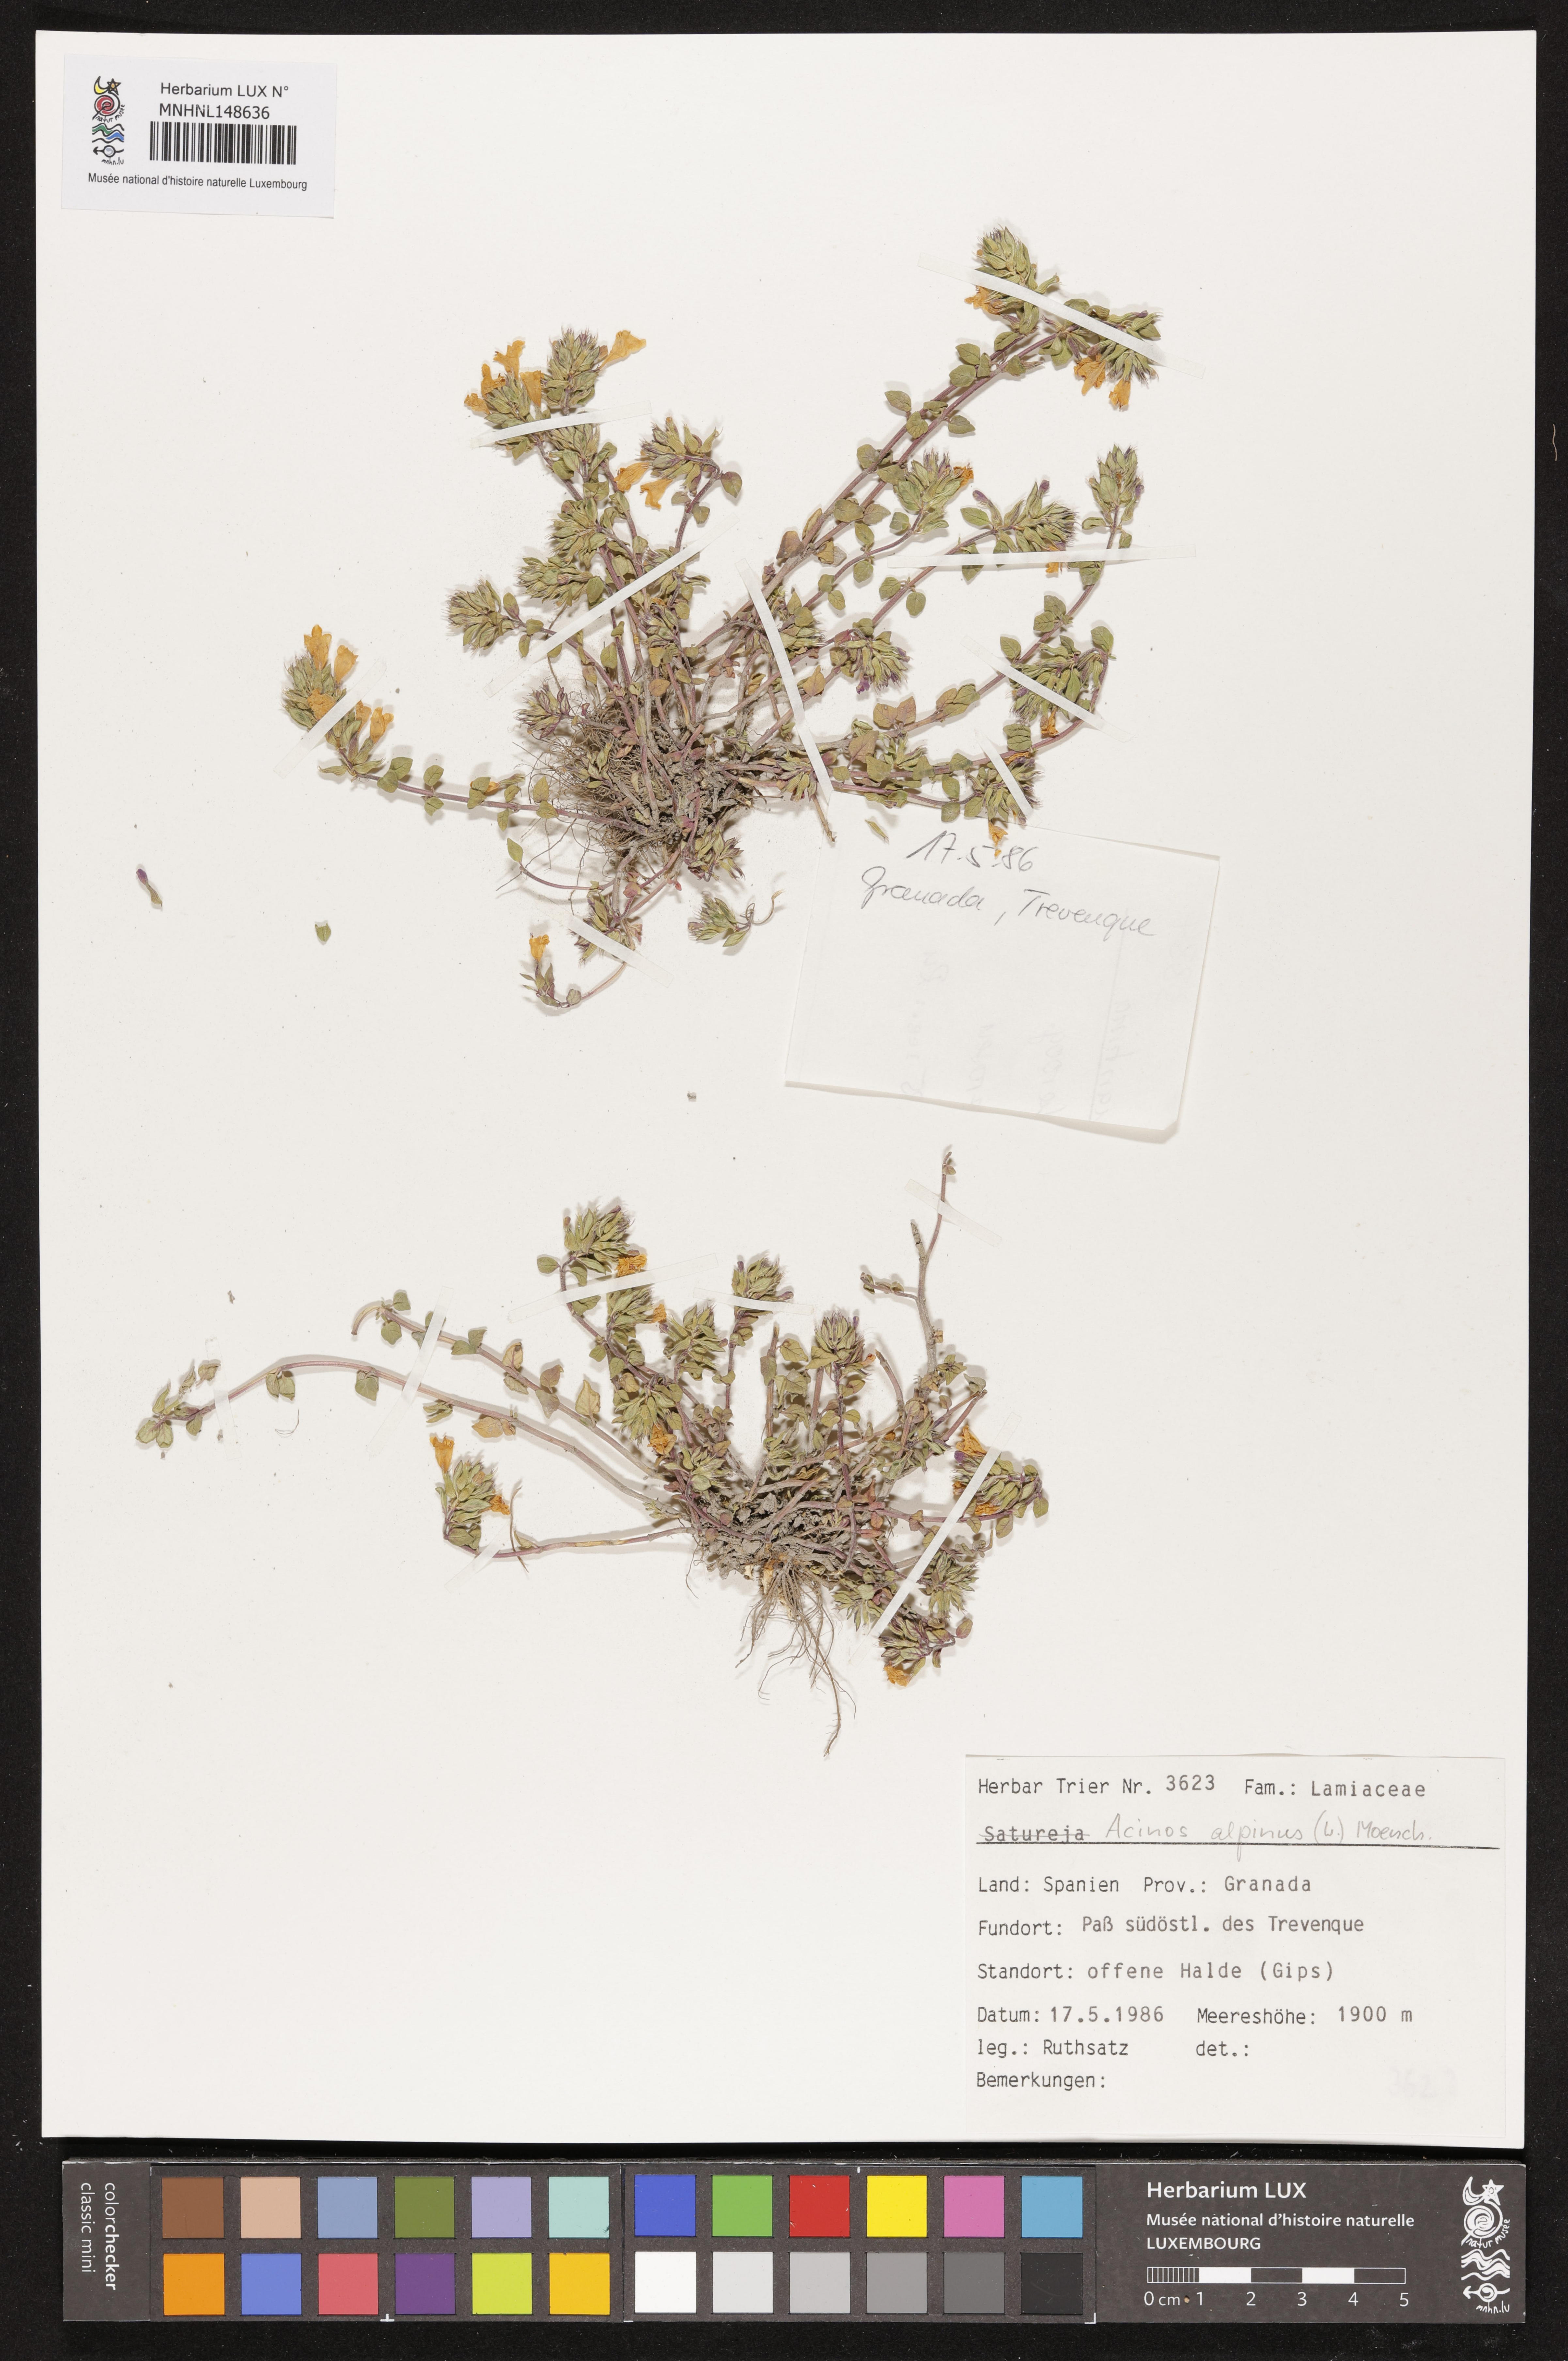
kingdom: Plantae
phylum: Tracheophyta
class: Magnoliopsida
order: Lamiales
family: Lamiaceae
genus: Clinopodium
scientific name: Clinopodium alpinum
